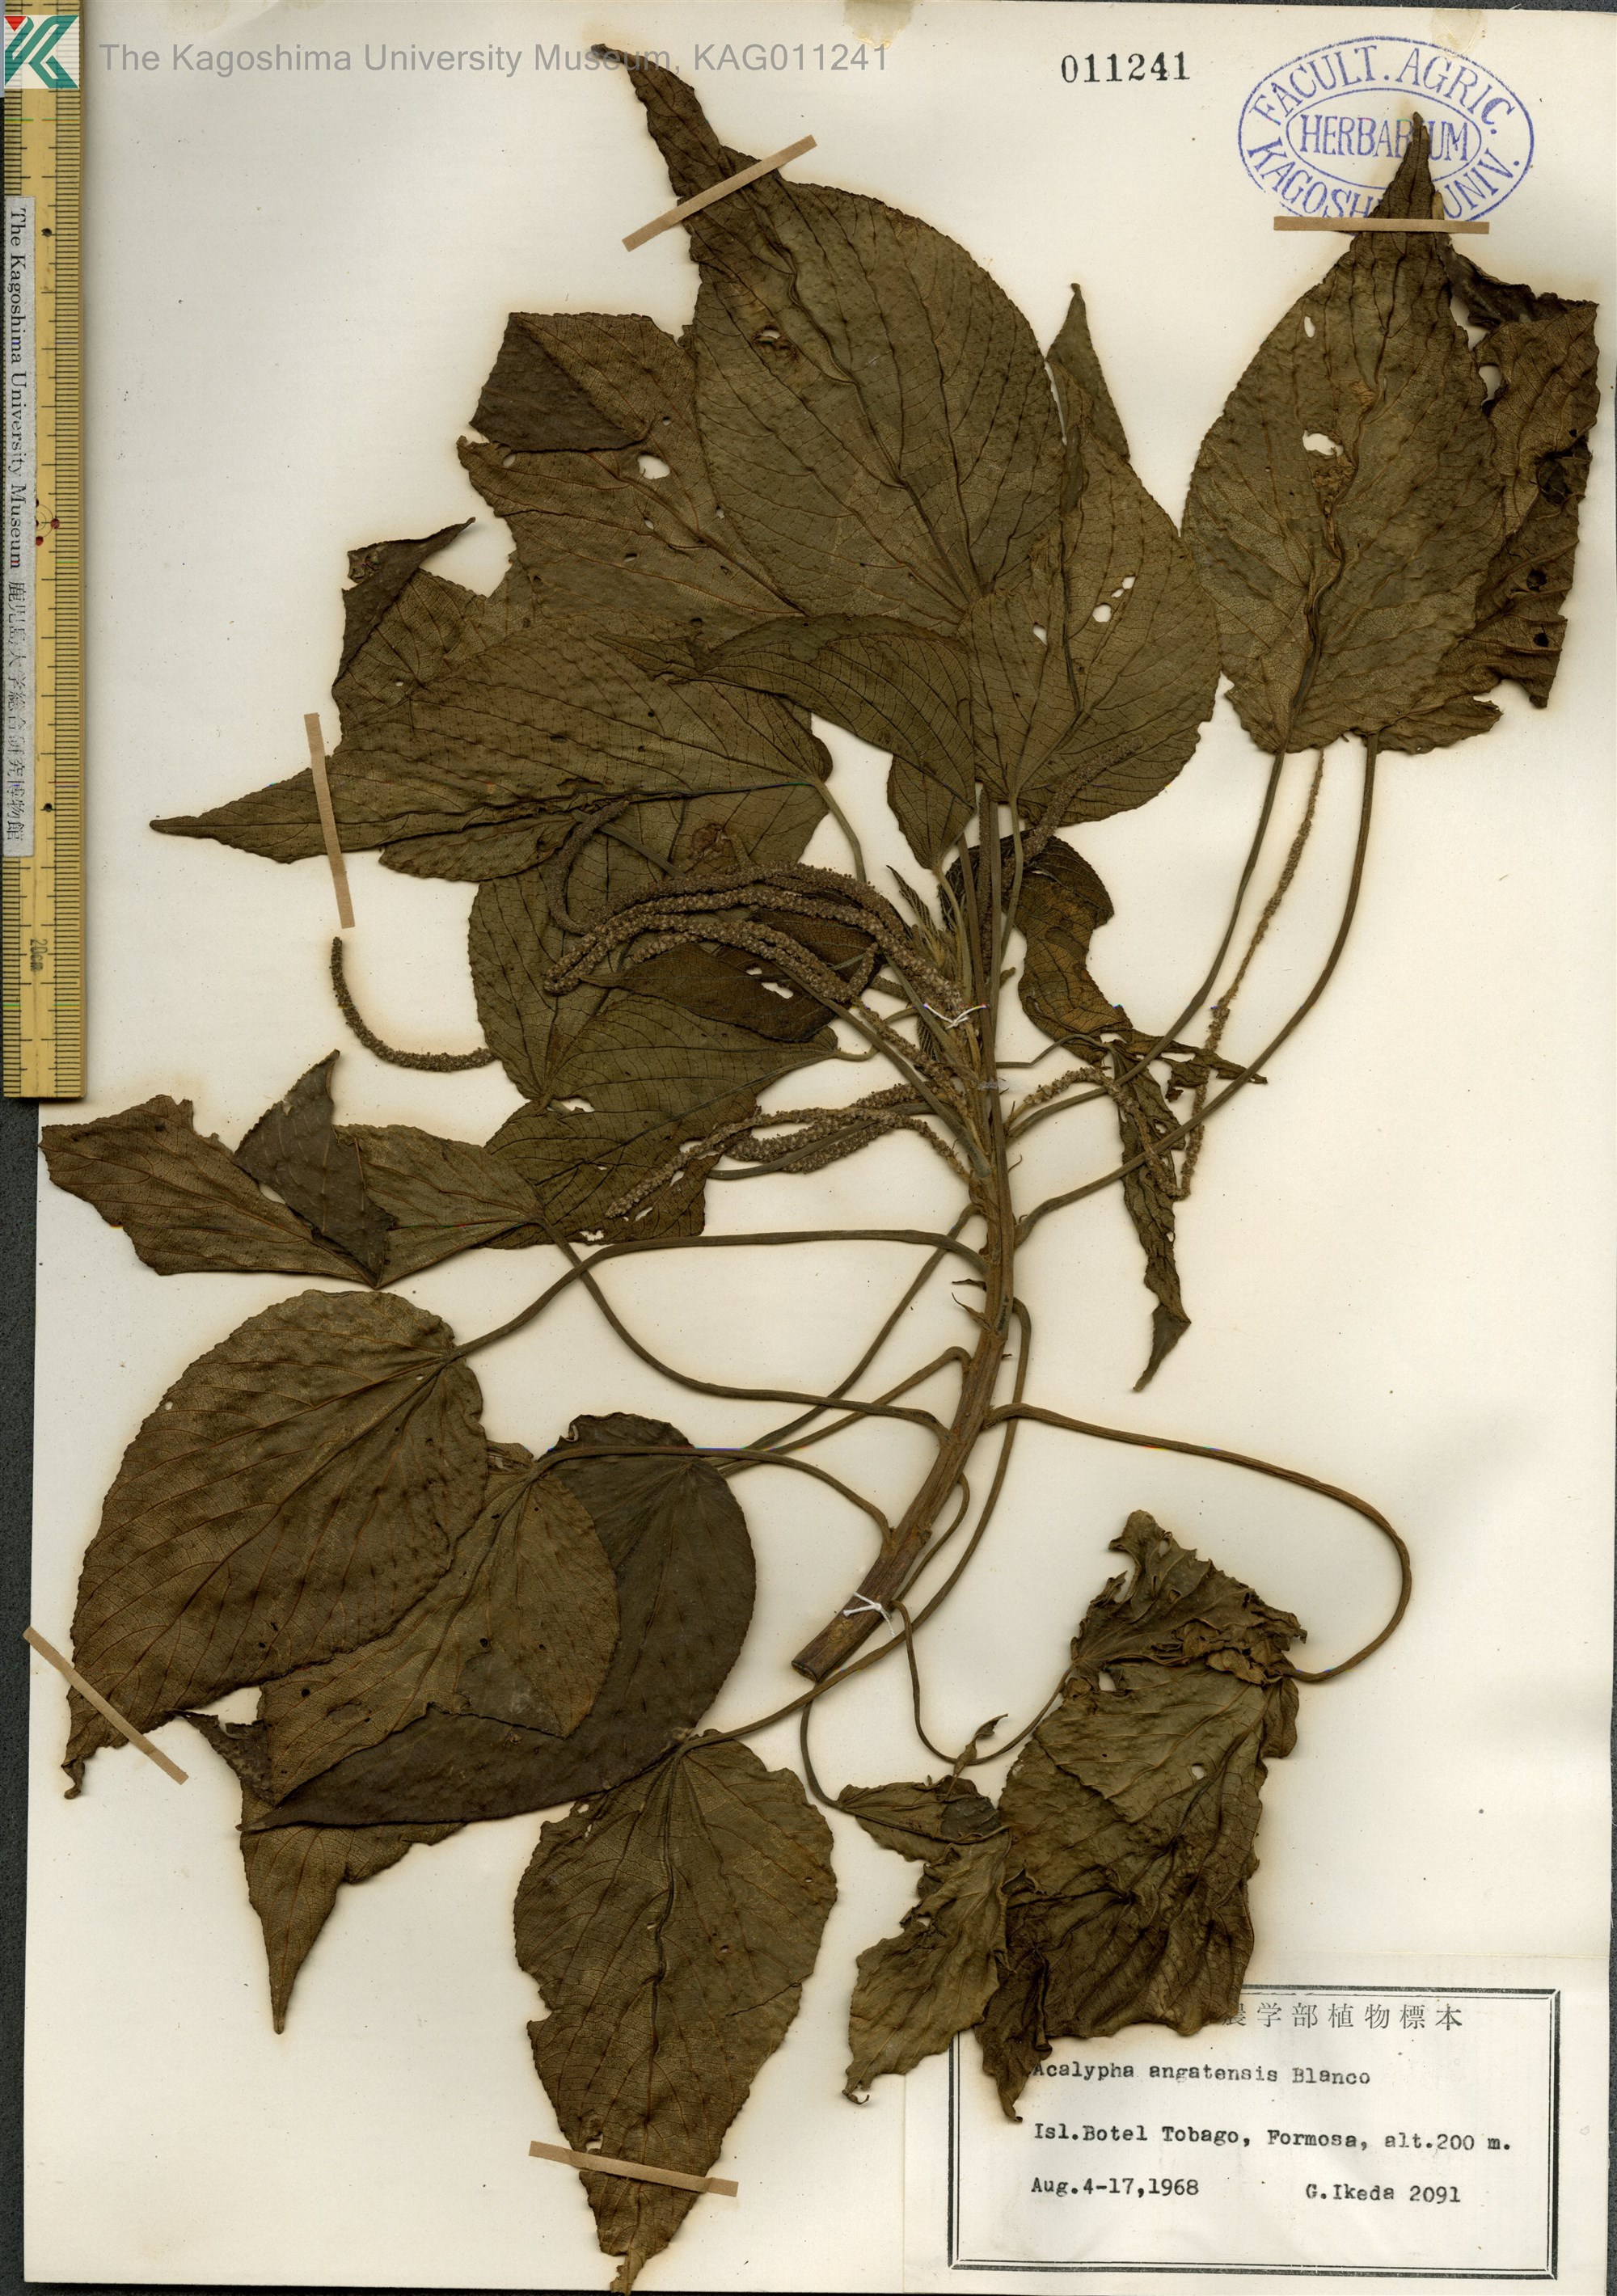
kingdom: Plantae
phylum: Tracheophyta
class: Magnoliopsida
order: Malpighiales
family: Euphorbiaceae
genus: Acalypha
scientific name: Acalypha angatensis
